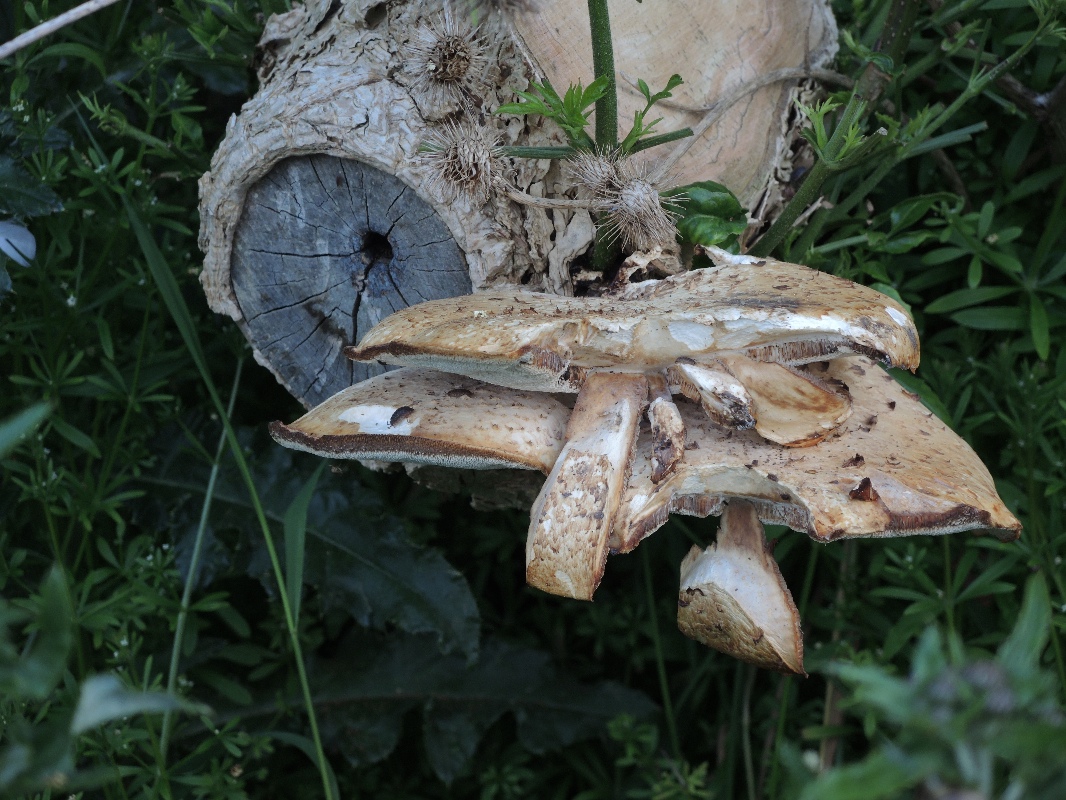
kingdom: Fungi
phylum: Basidiomycota
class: Agaricomycetes
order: Polyporales
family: Polyporaceae
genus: Cerioporus
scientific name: Cerioporus squamosus
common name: skællet stilkporesvamp
